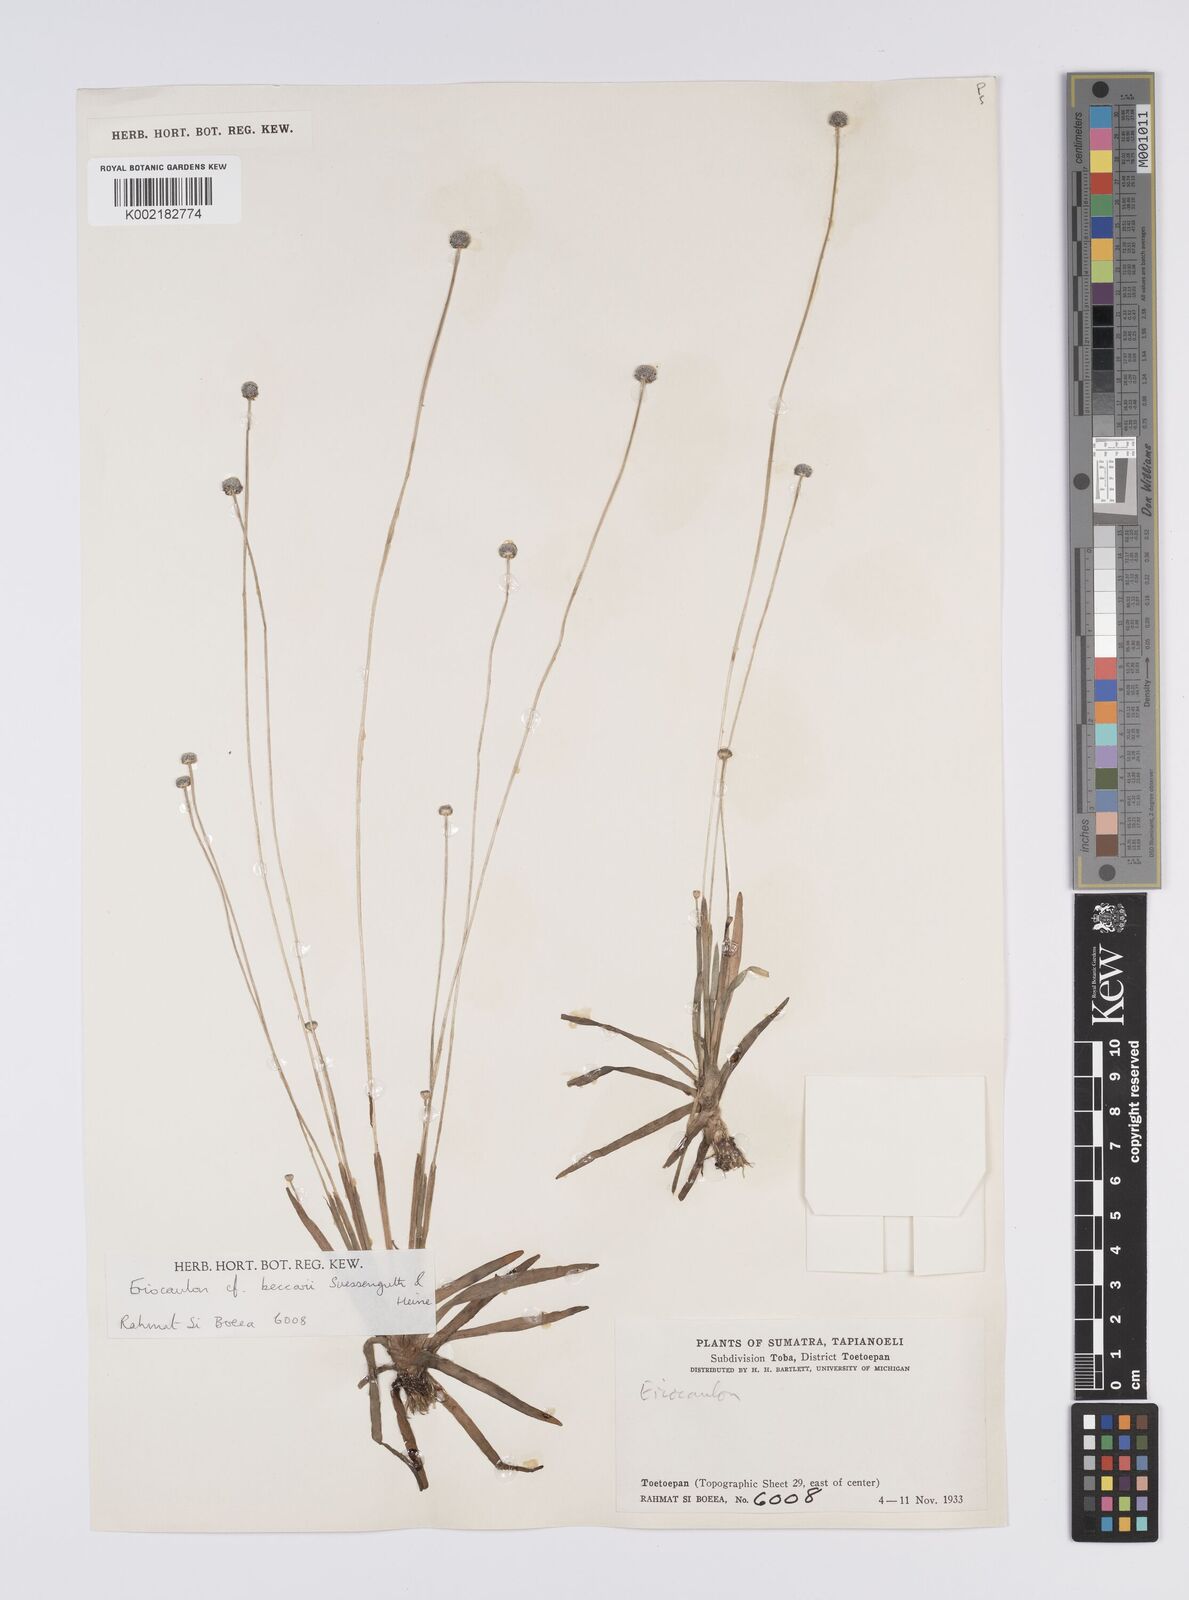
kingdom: Plantae
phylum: Tracheophyta
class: Liliopsida
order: Poales
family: Eriocaulaceae
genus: Eriocaulon
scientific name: Eriocaulon hookerianum
